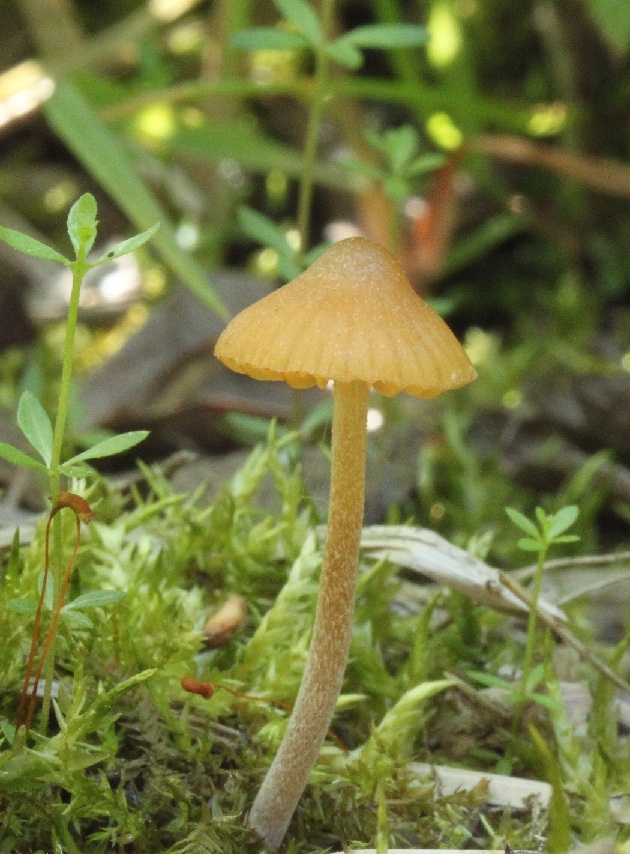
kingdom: Fungi
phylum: Basidiomycota
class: Agaricomycetes
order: Agaricales
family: Hymenogastraceae
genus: Galerina
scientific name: Galerina clavata
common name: kær-hjelmhat
